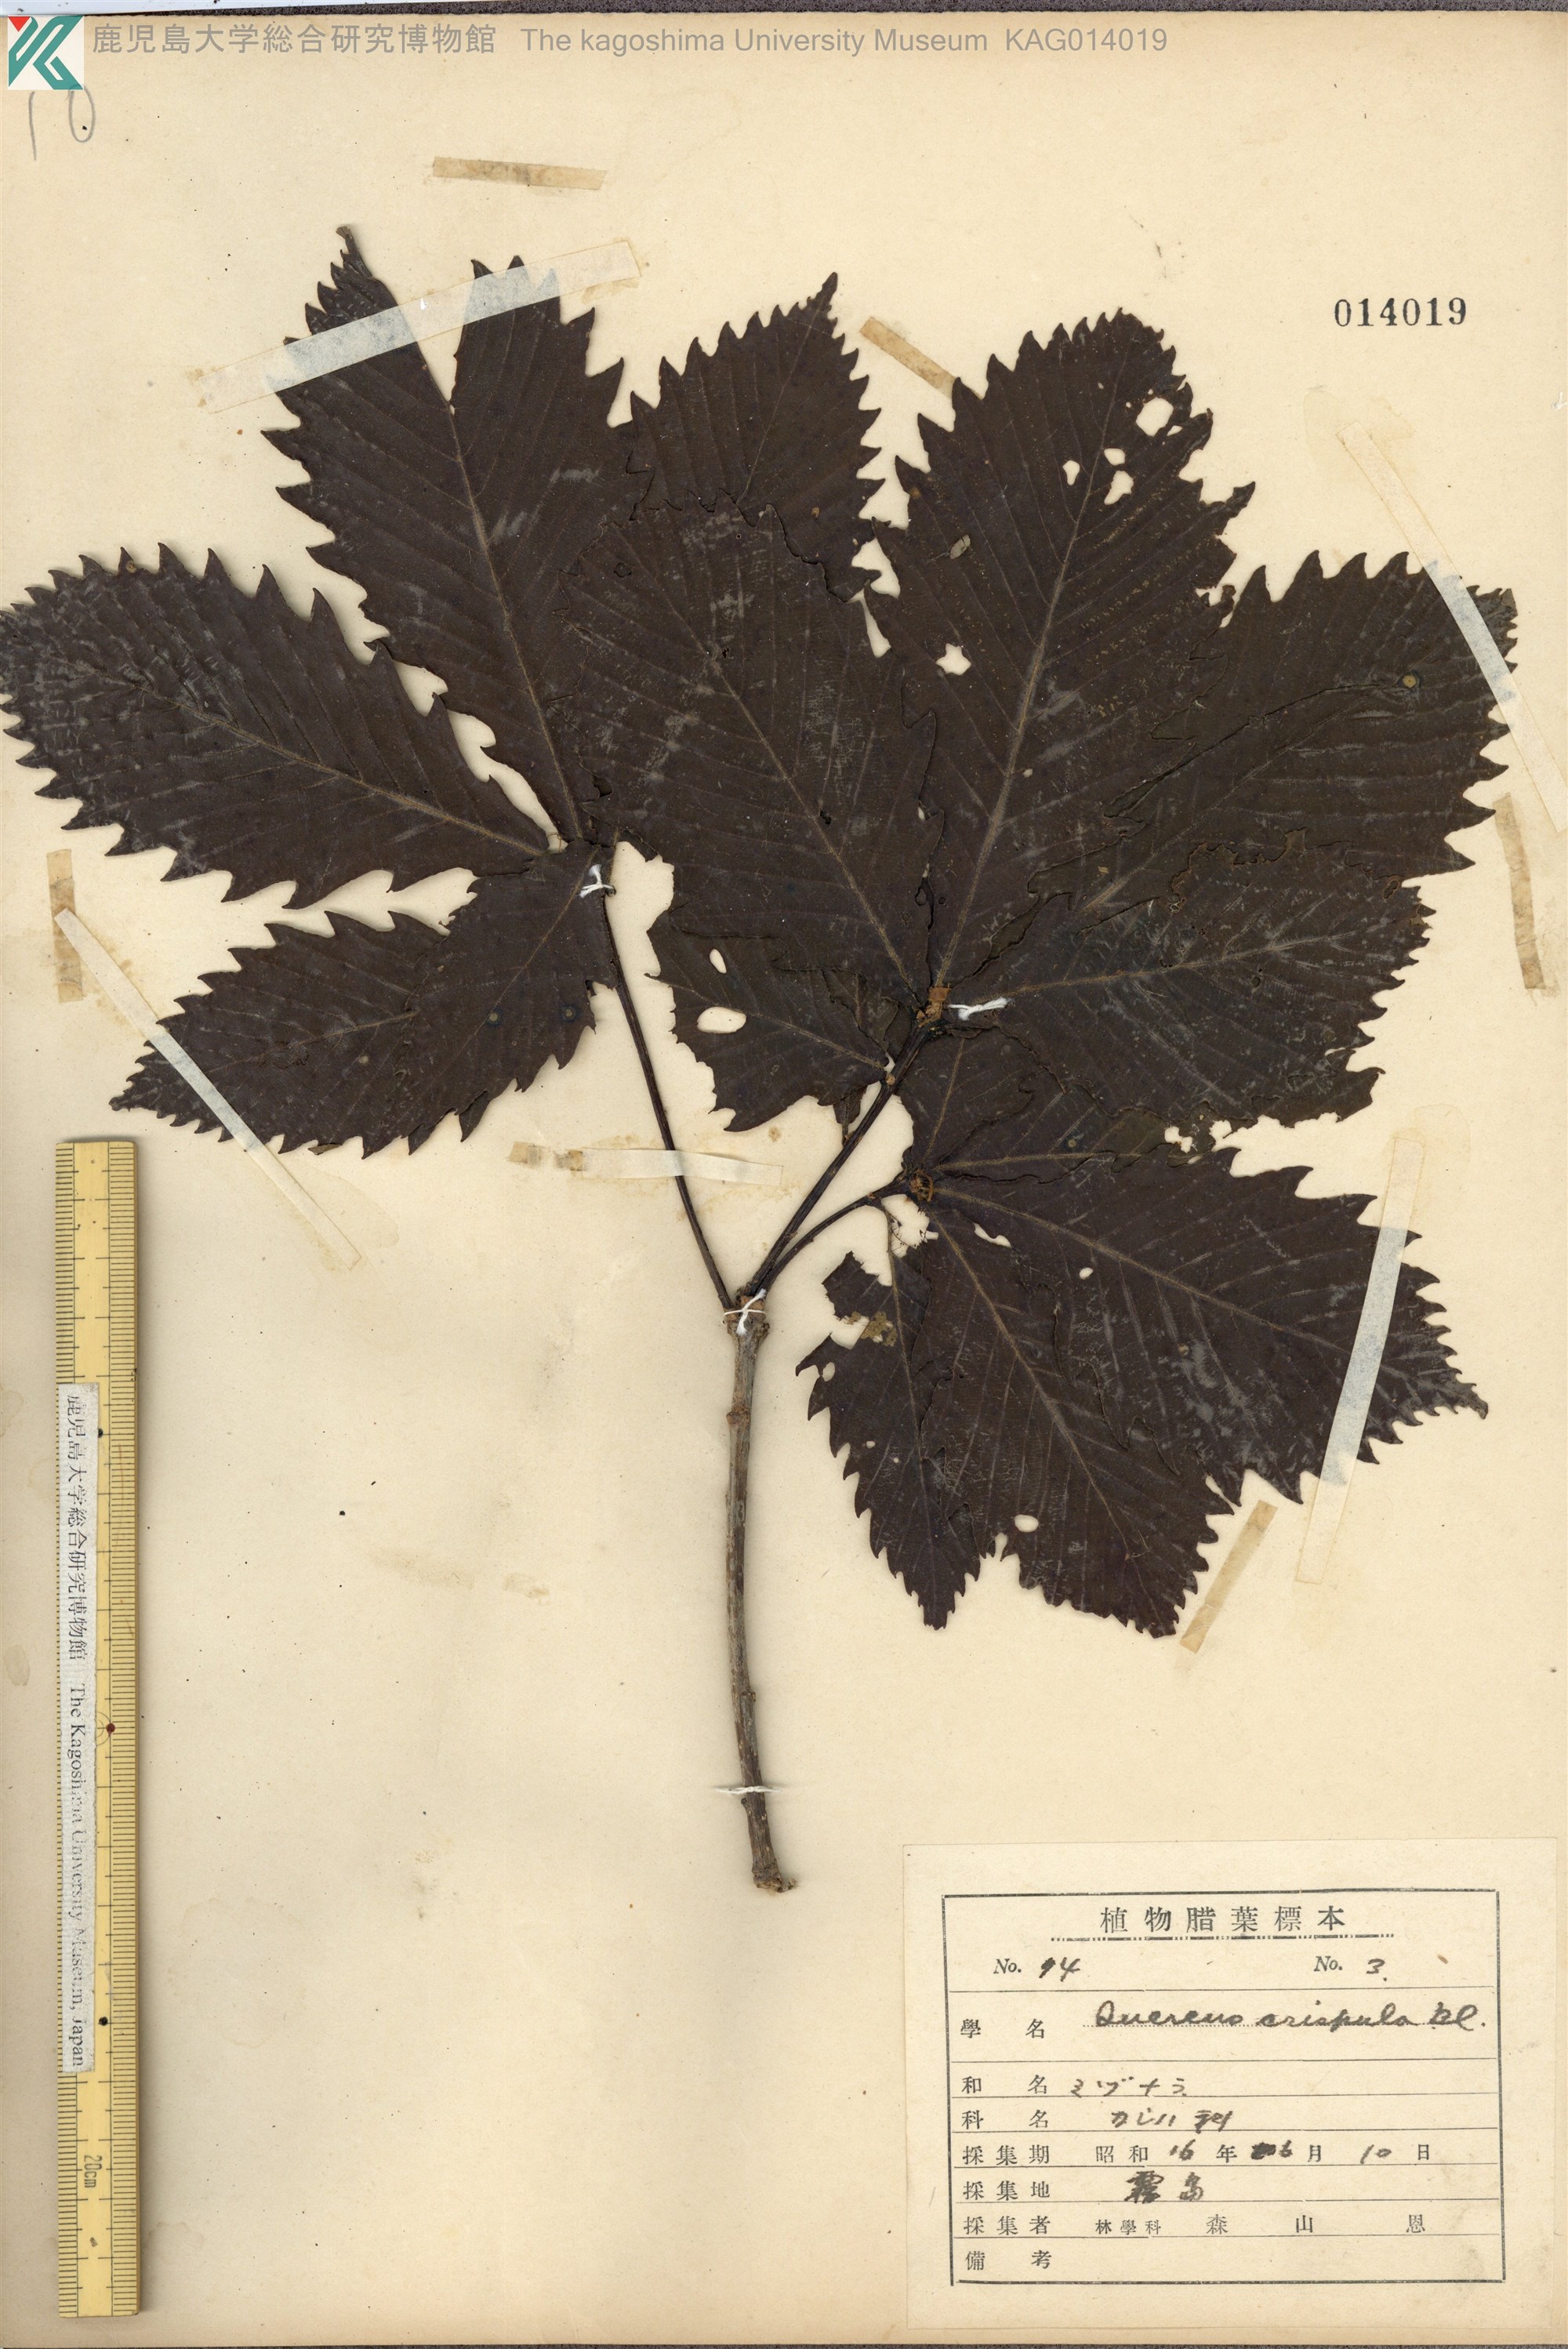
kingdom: Plantae
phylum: Tracheophyta
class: Magnoliopsida
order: Fagales
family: Fagaceae
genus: Quercus
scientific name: Quercus crispula
